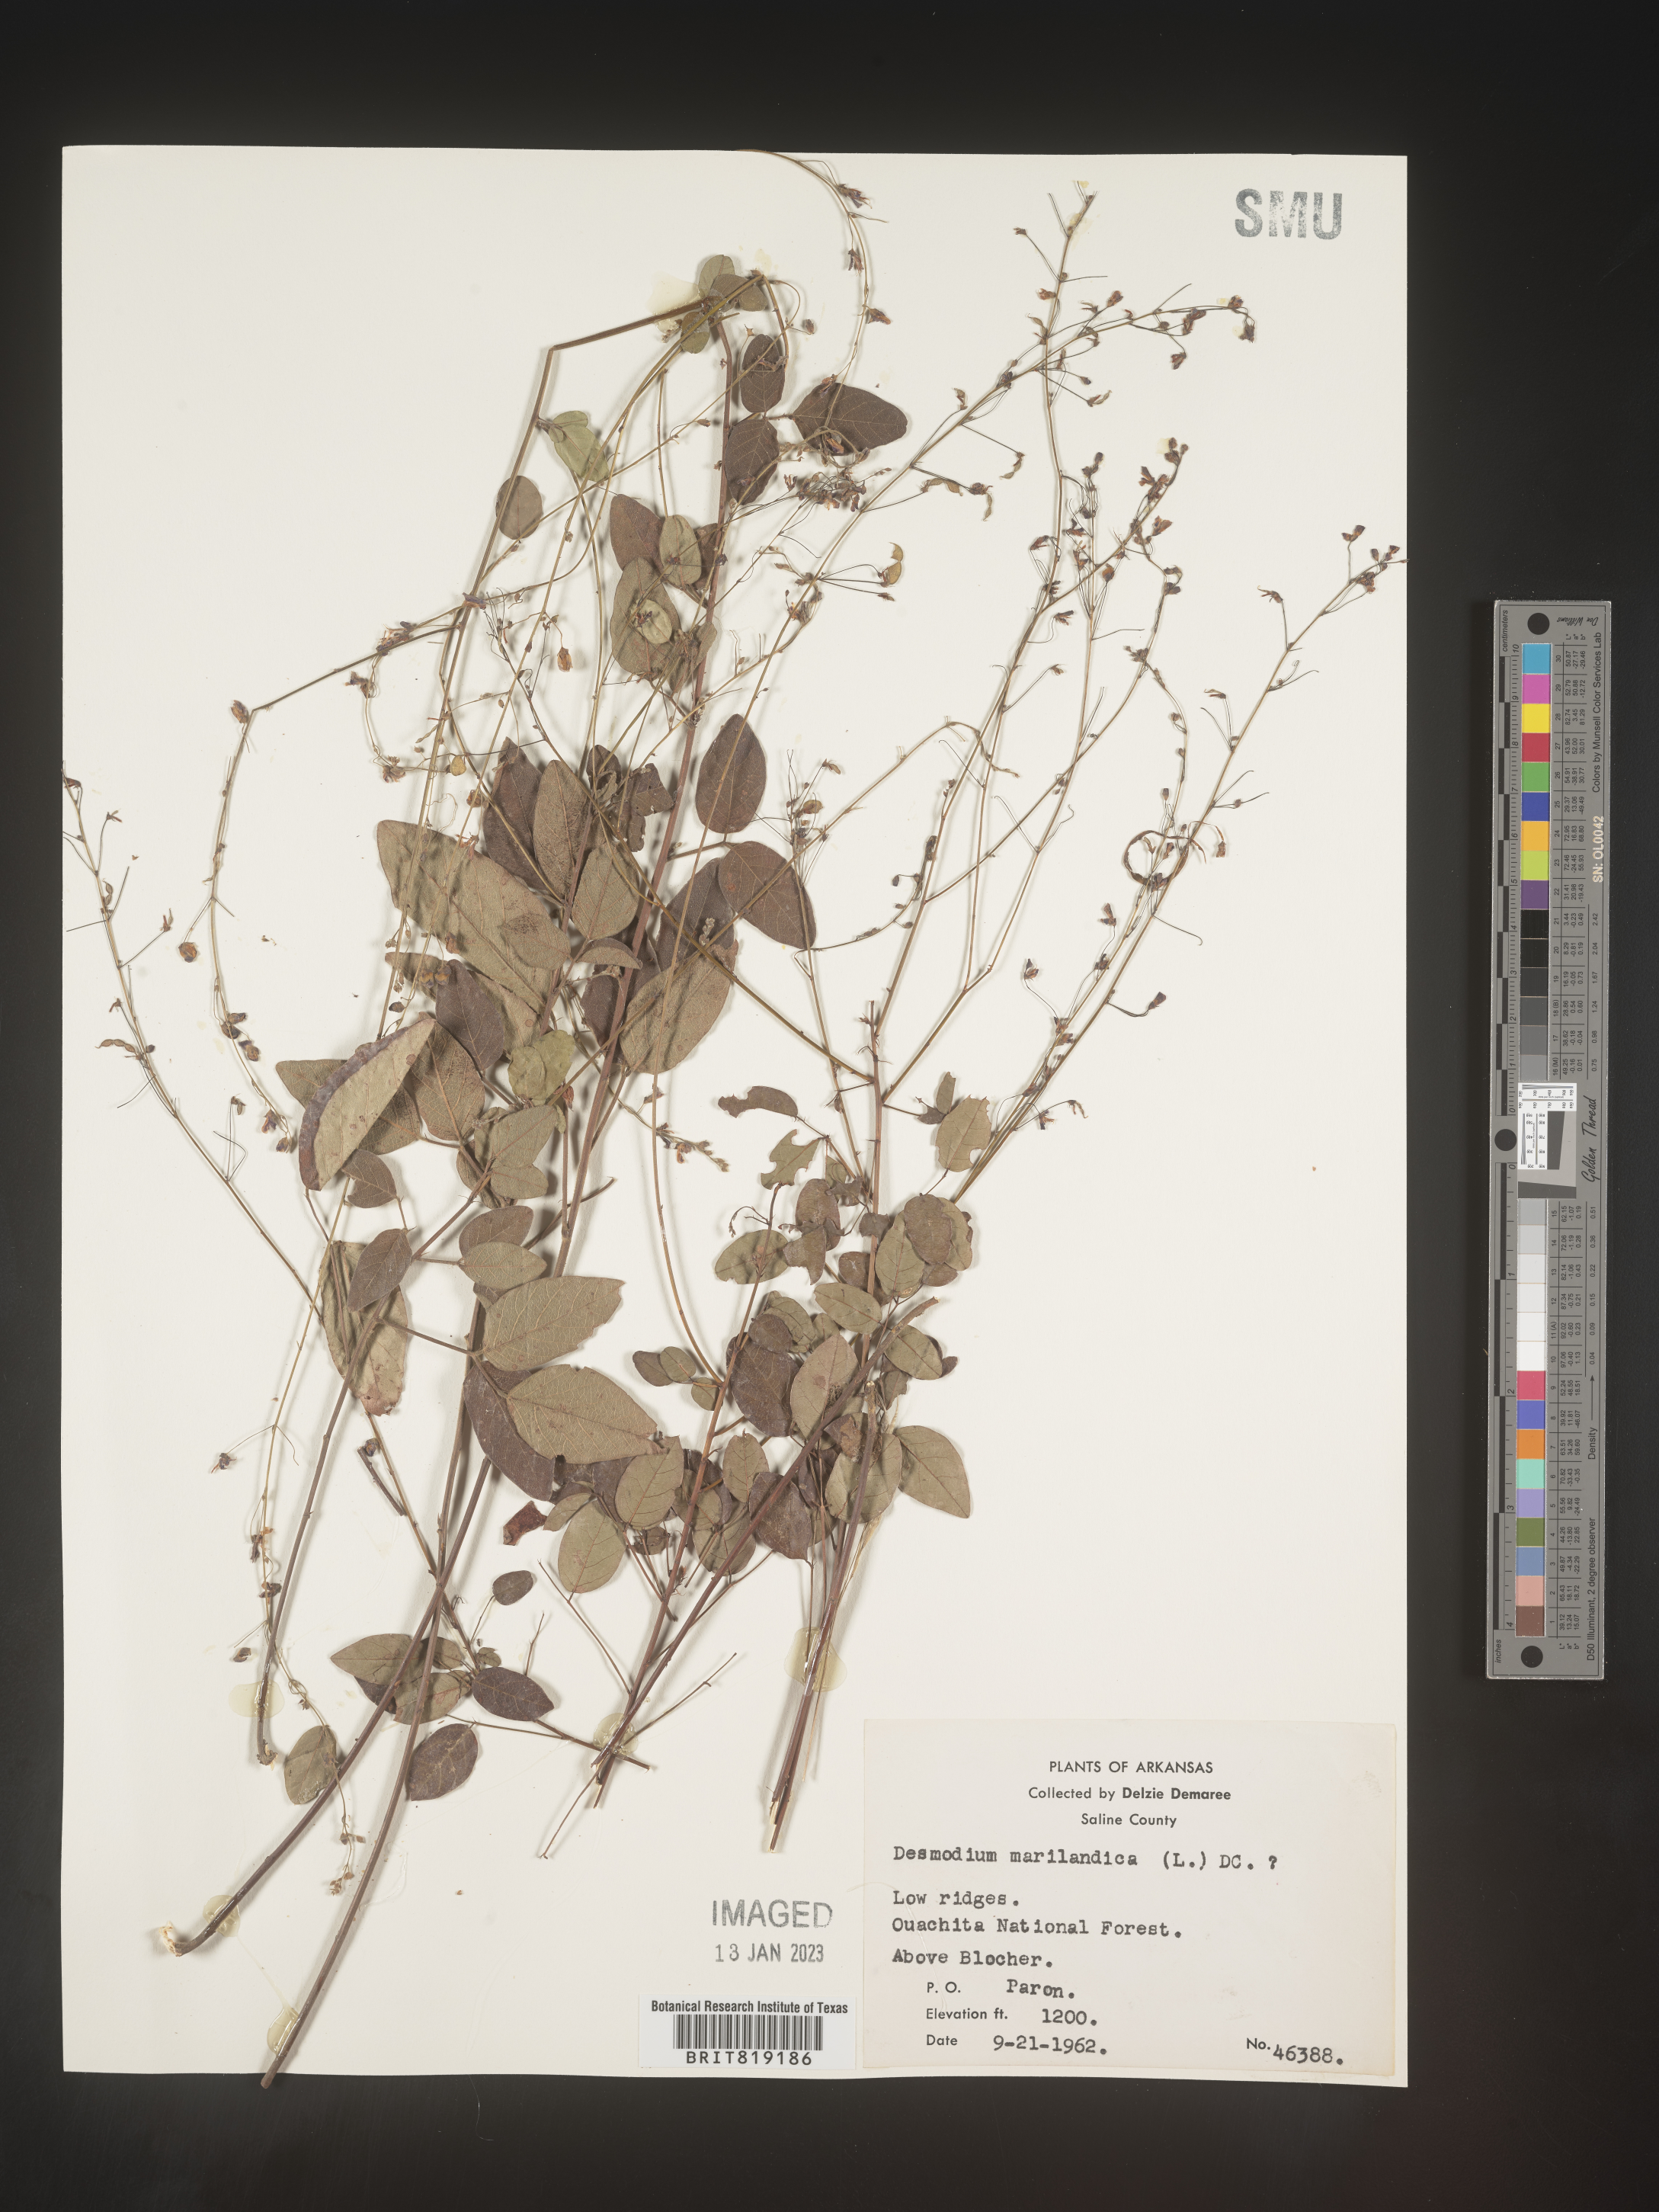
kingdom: Plantae
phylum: Tracheophyta
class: Magnoliopsida
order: Fabales
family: Fabaceae
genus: Desmodium
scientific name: Desmodium marilandicum
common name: Maryland tick-trefoil
